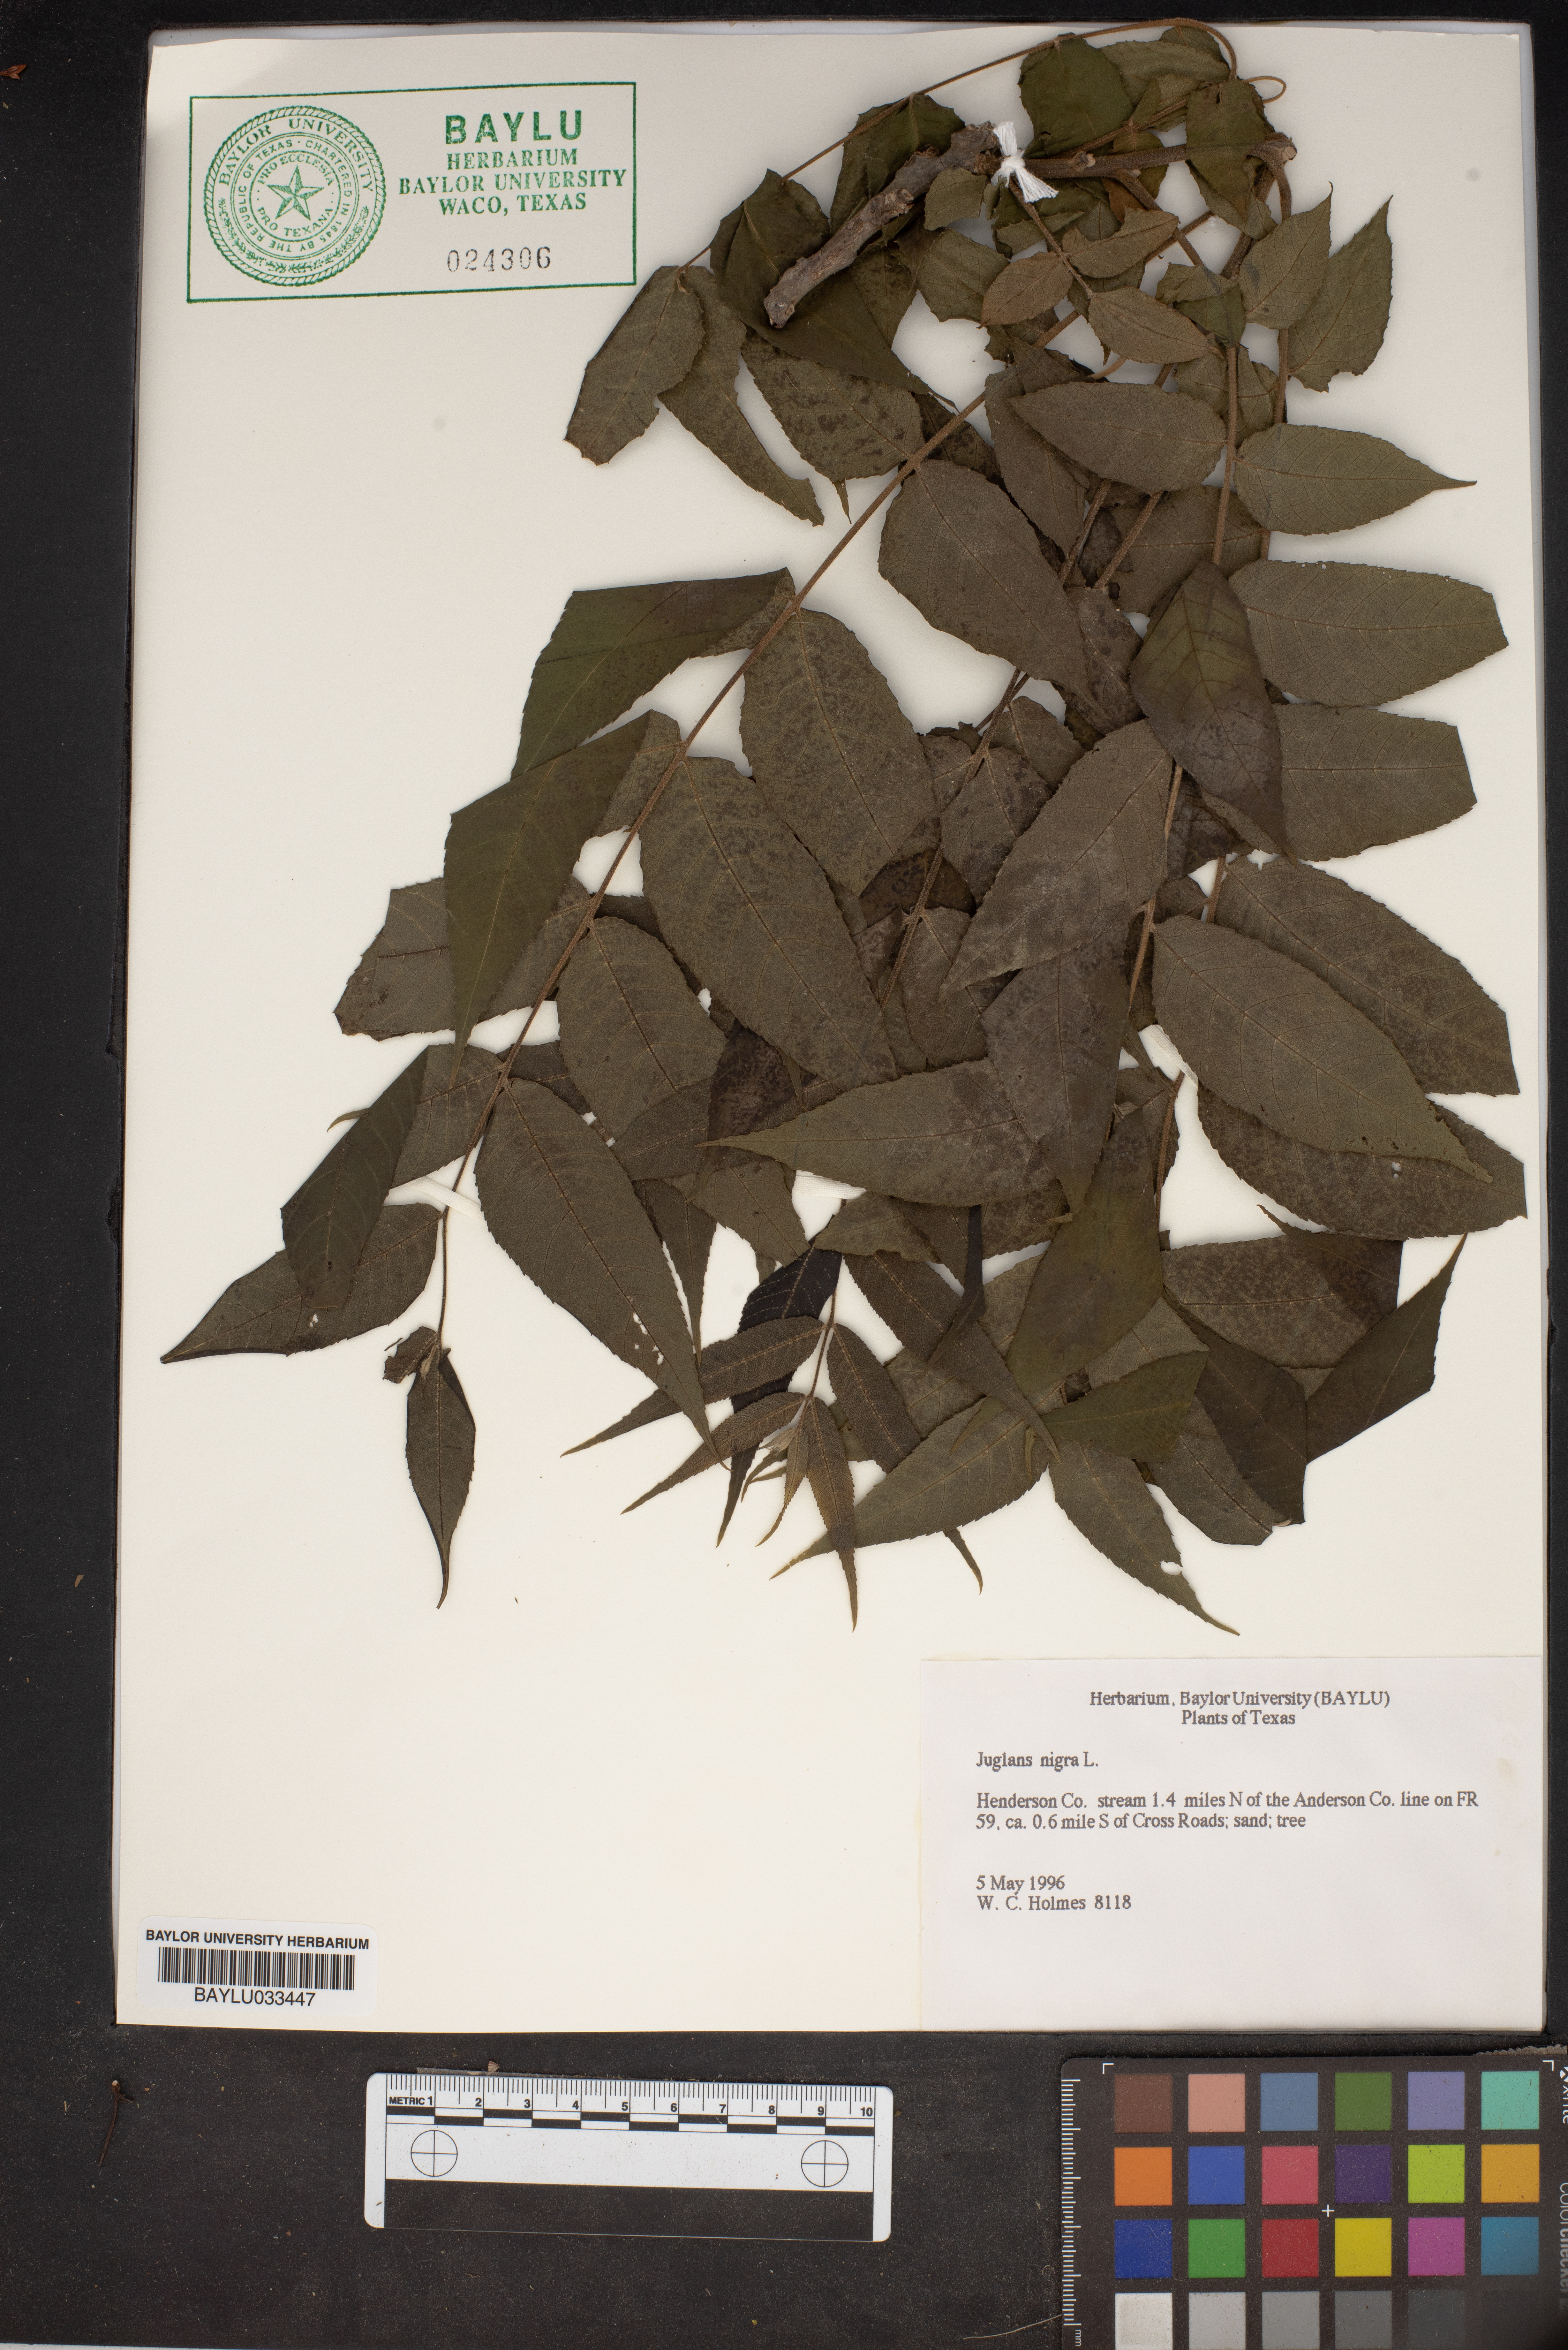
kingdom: Plantae
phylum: Tracheophyta
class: Magnoliopsida
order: Fagales
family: Juglandaceae
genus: Juglans
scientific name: Juglans nigra
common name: Black walnut
